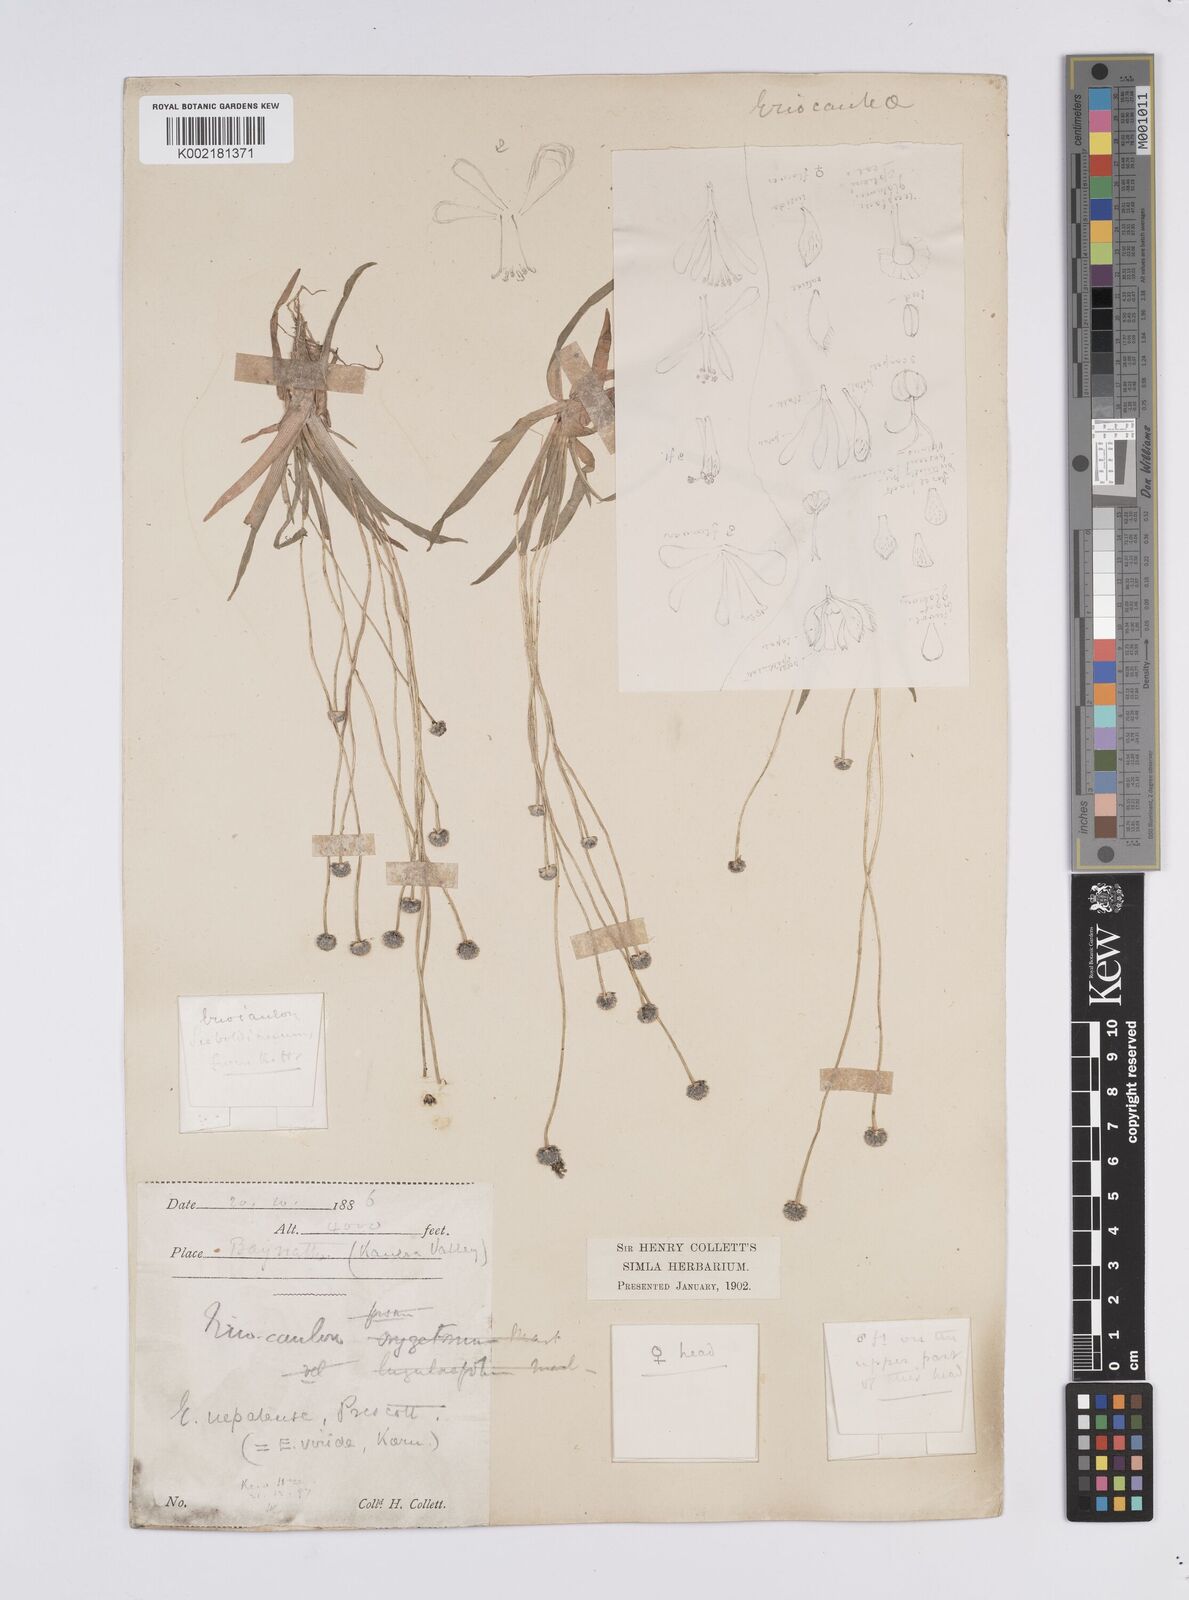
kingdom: Plantae
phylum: Tracheophyta
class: Liliopsida
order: Poales
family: Eriocaulaceae
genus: Eriocaulon
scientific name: Eriocaulon nepalense
